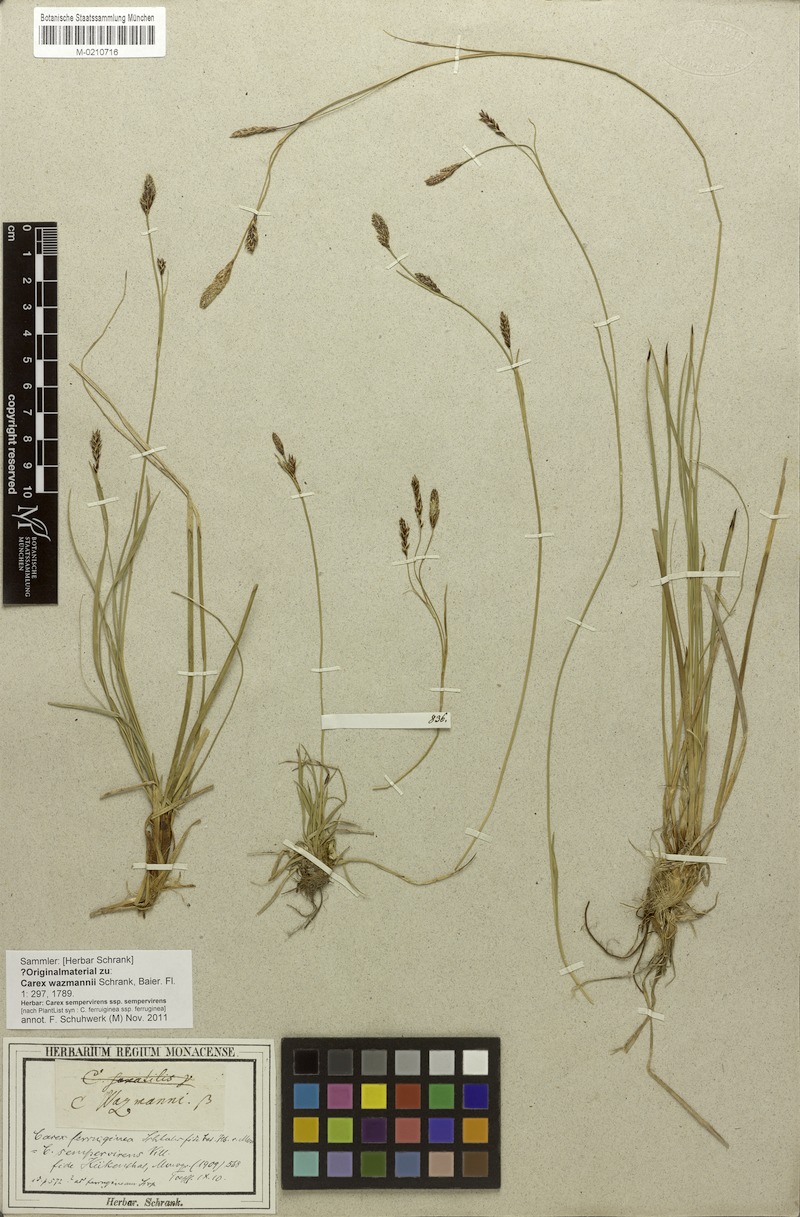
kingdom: Plantae
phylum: Tracheophyta
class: Liliopsida
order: Poales
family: Cyperaceae
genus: Carex
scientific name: Carex sempervirens
